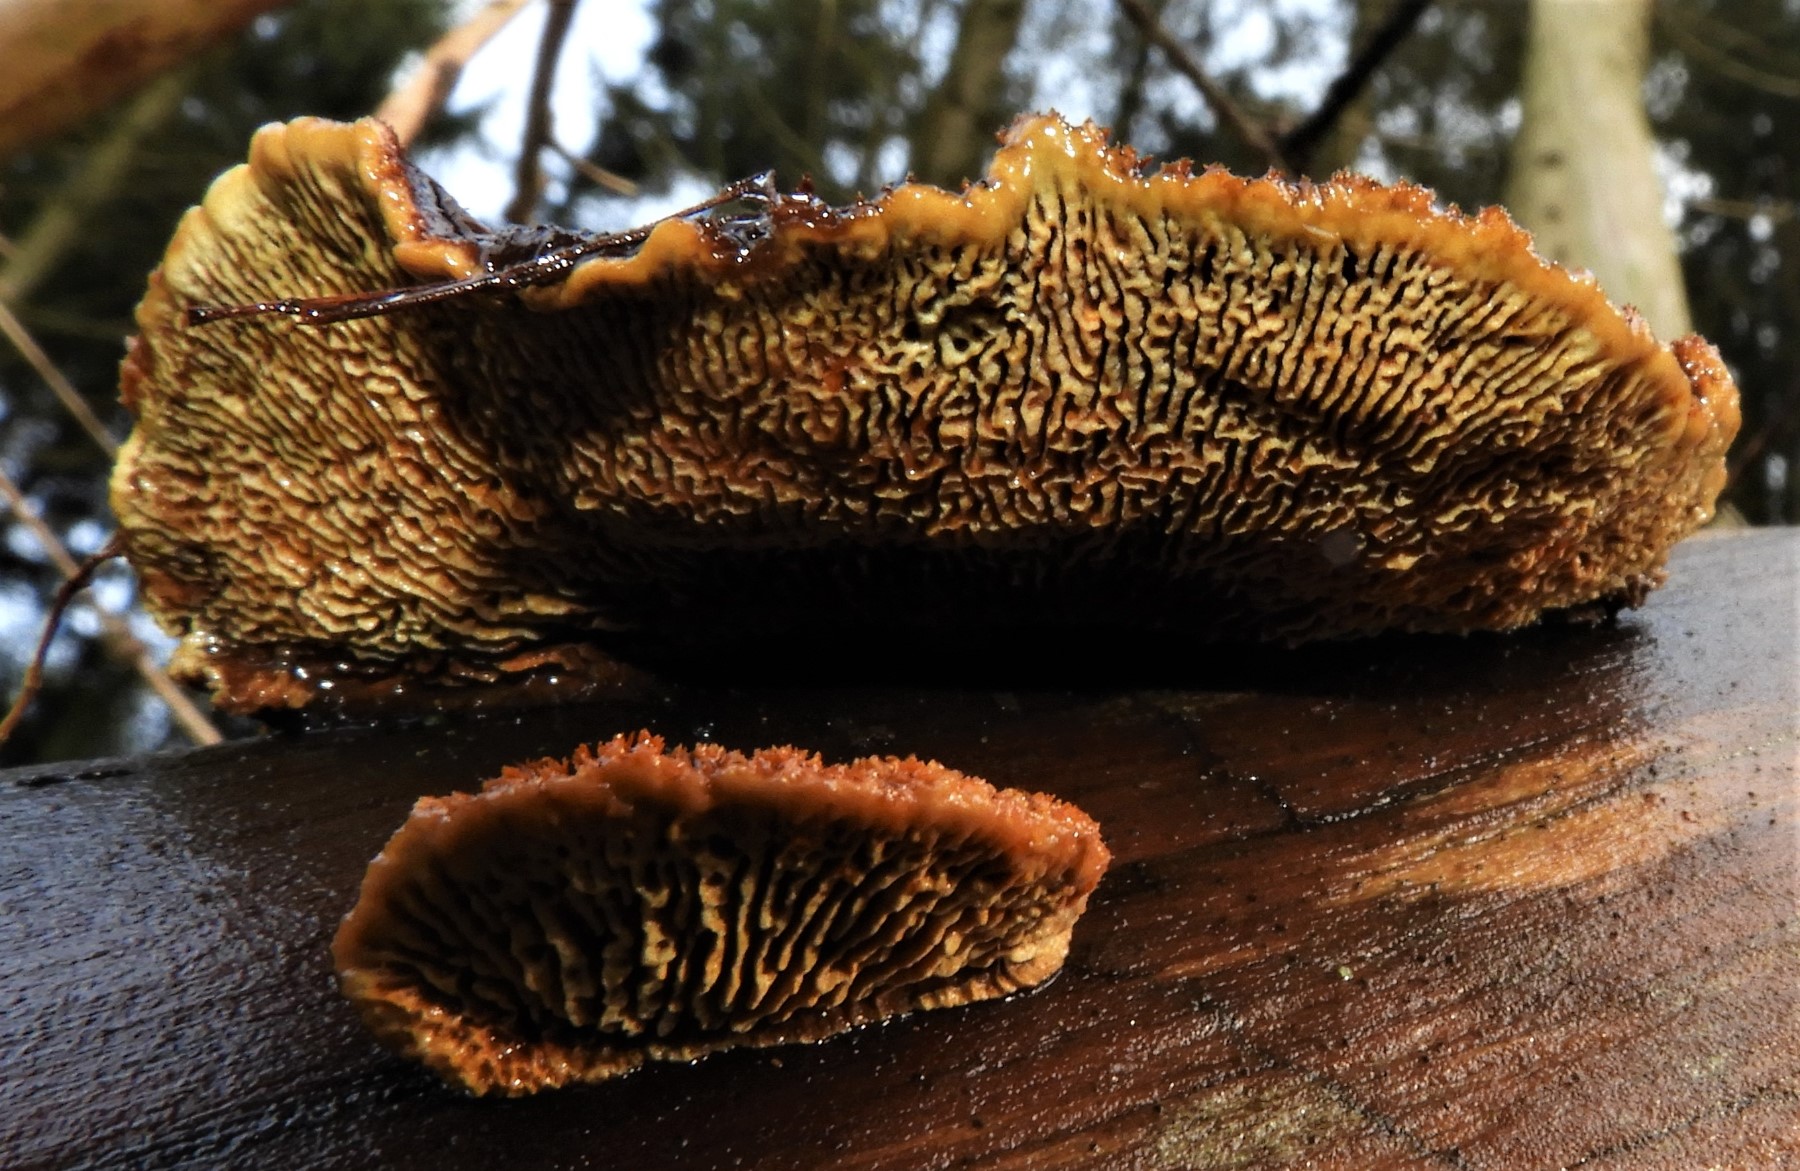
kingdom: Fungi
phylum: Basidiomycota
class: Agaricomycetes
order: Gloeophyllales
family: Gloeophyllaceae
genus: Gloeophyllum
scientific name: Gloeophyllum sepiarium
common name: fyrre-korkhat
